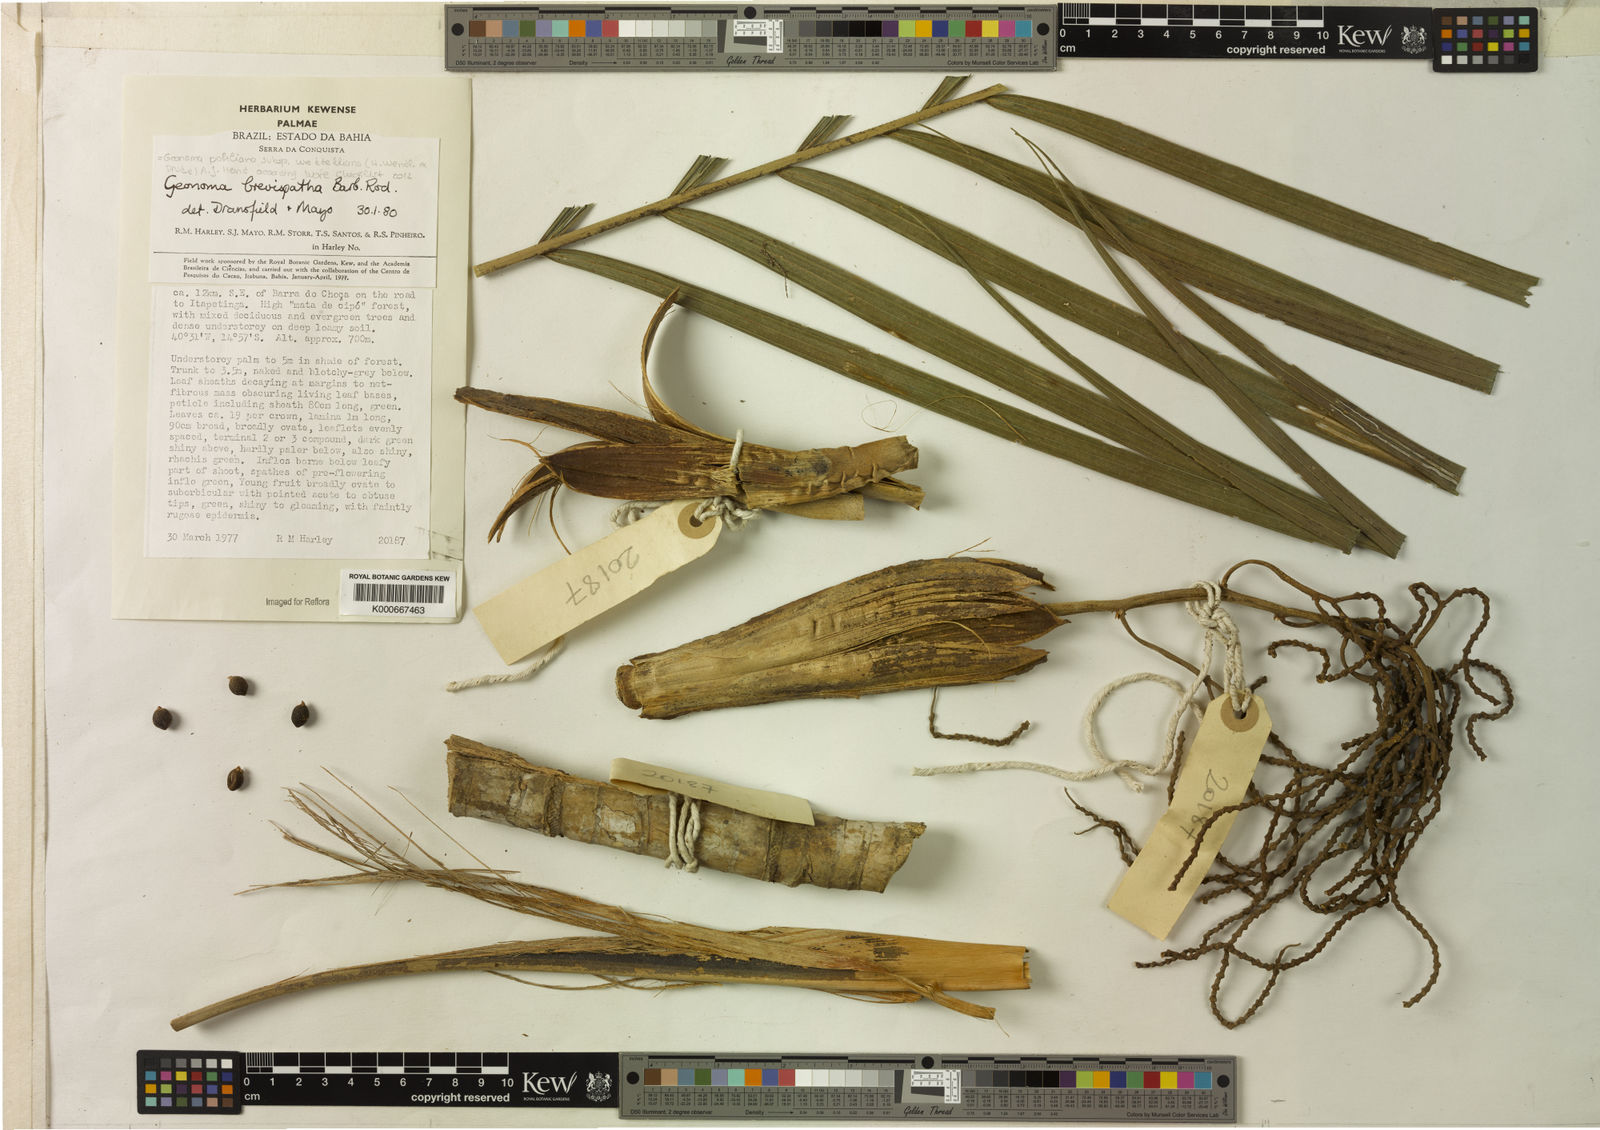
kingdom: Plantae
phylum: Tracheophyta
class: Liliopsida
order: Arecales
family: Arecaceae
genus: Geonoma
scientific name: Geonoma
